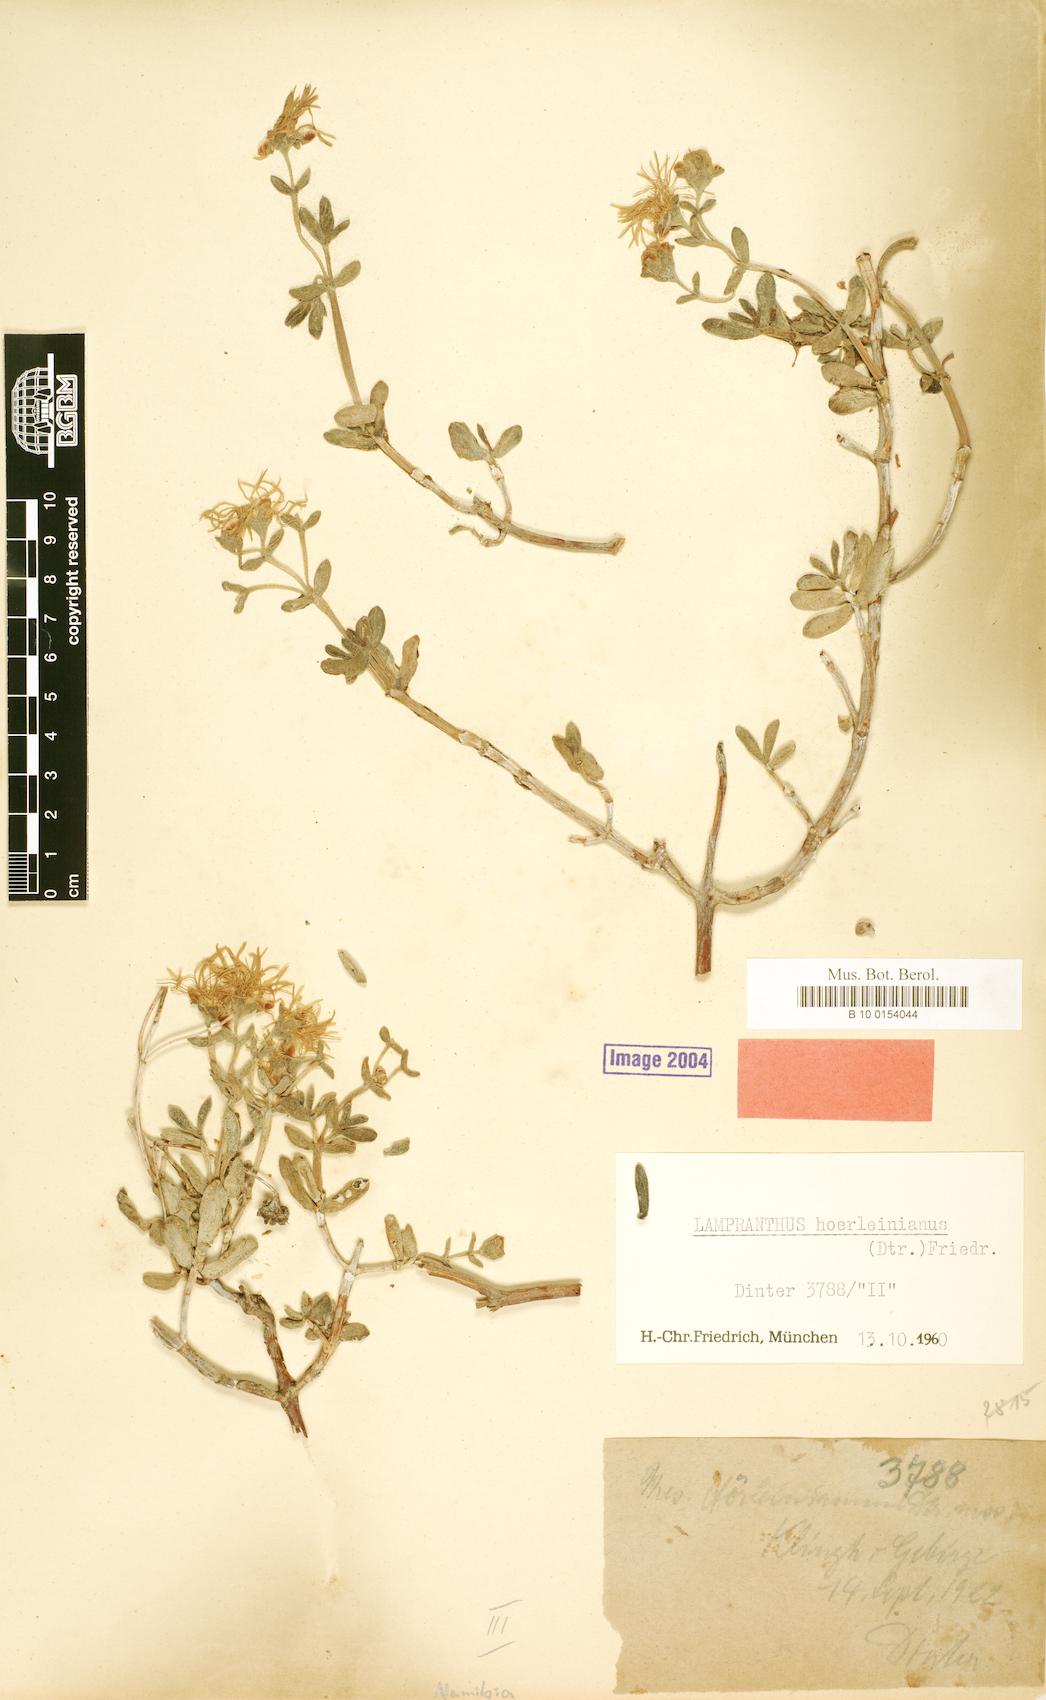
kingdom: Plantae
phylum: Tracheophyta
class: Magnoliopsida
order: Caryophyllales
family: Aizoaceae
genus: Lampranthus
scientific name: Lampranthus hoerleinianus
